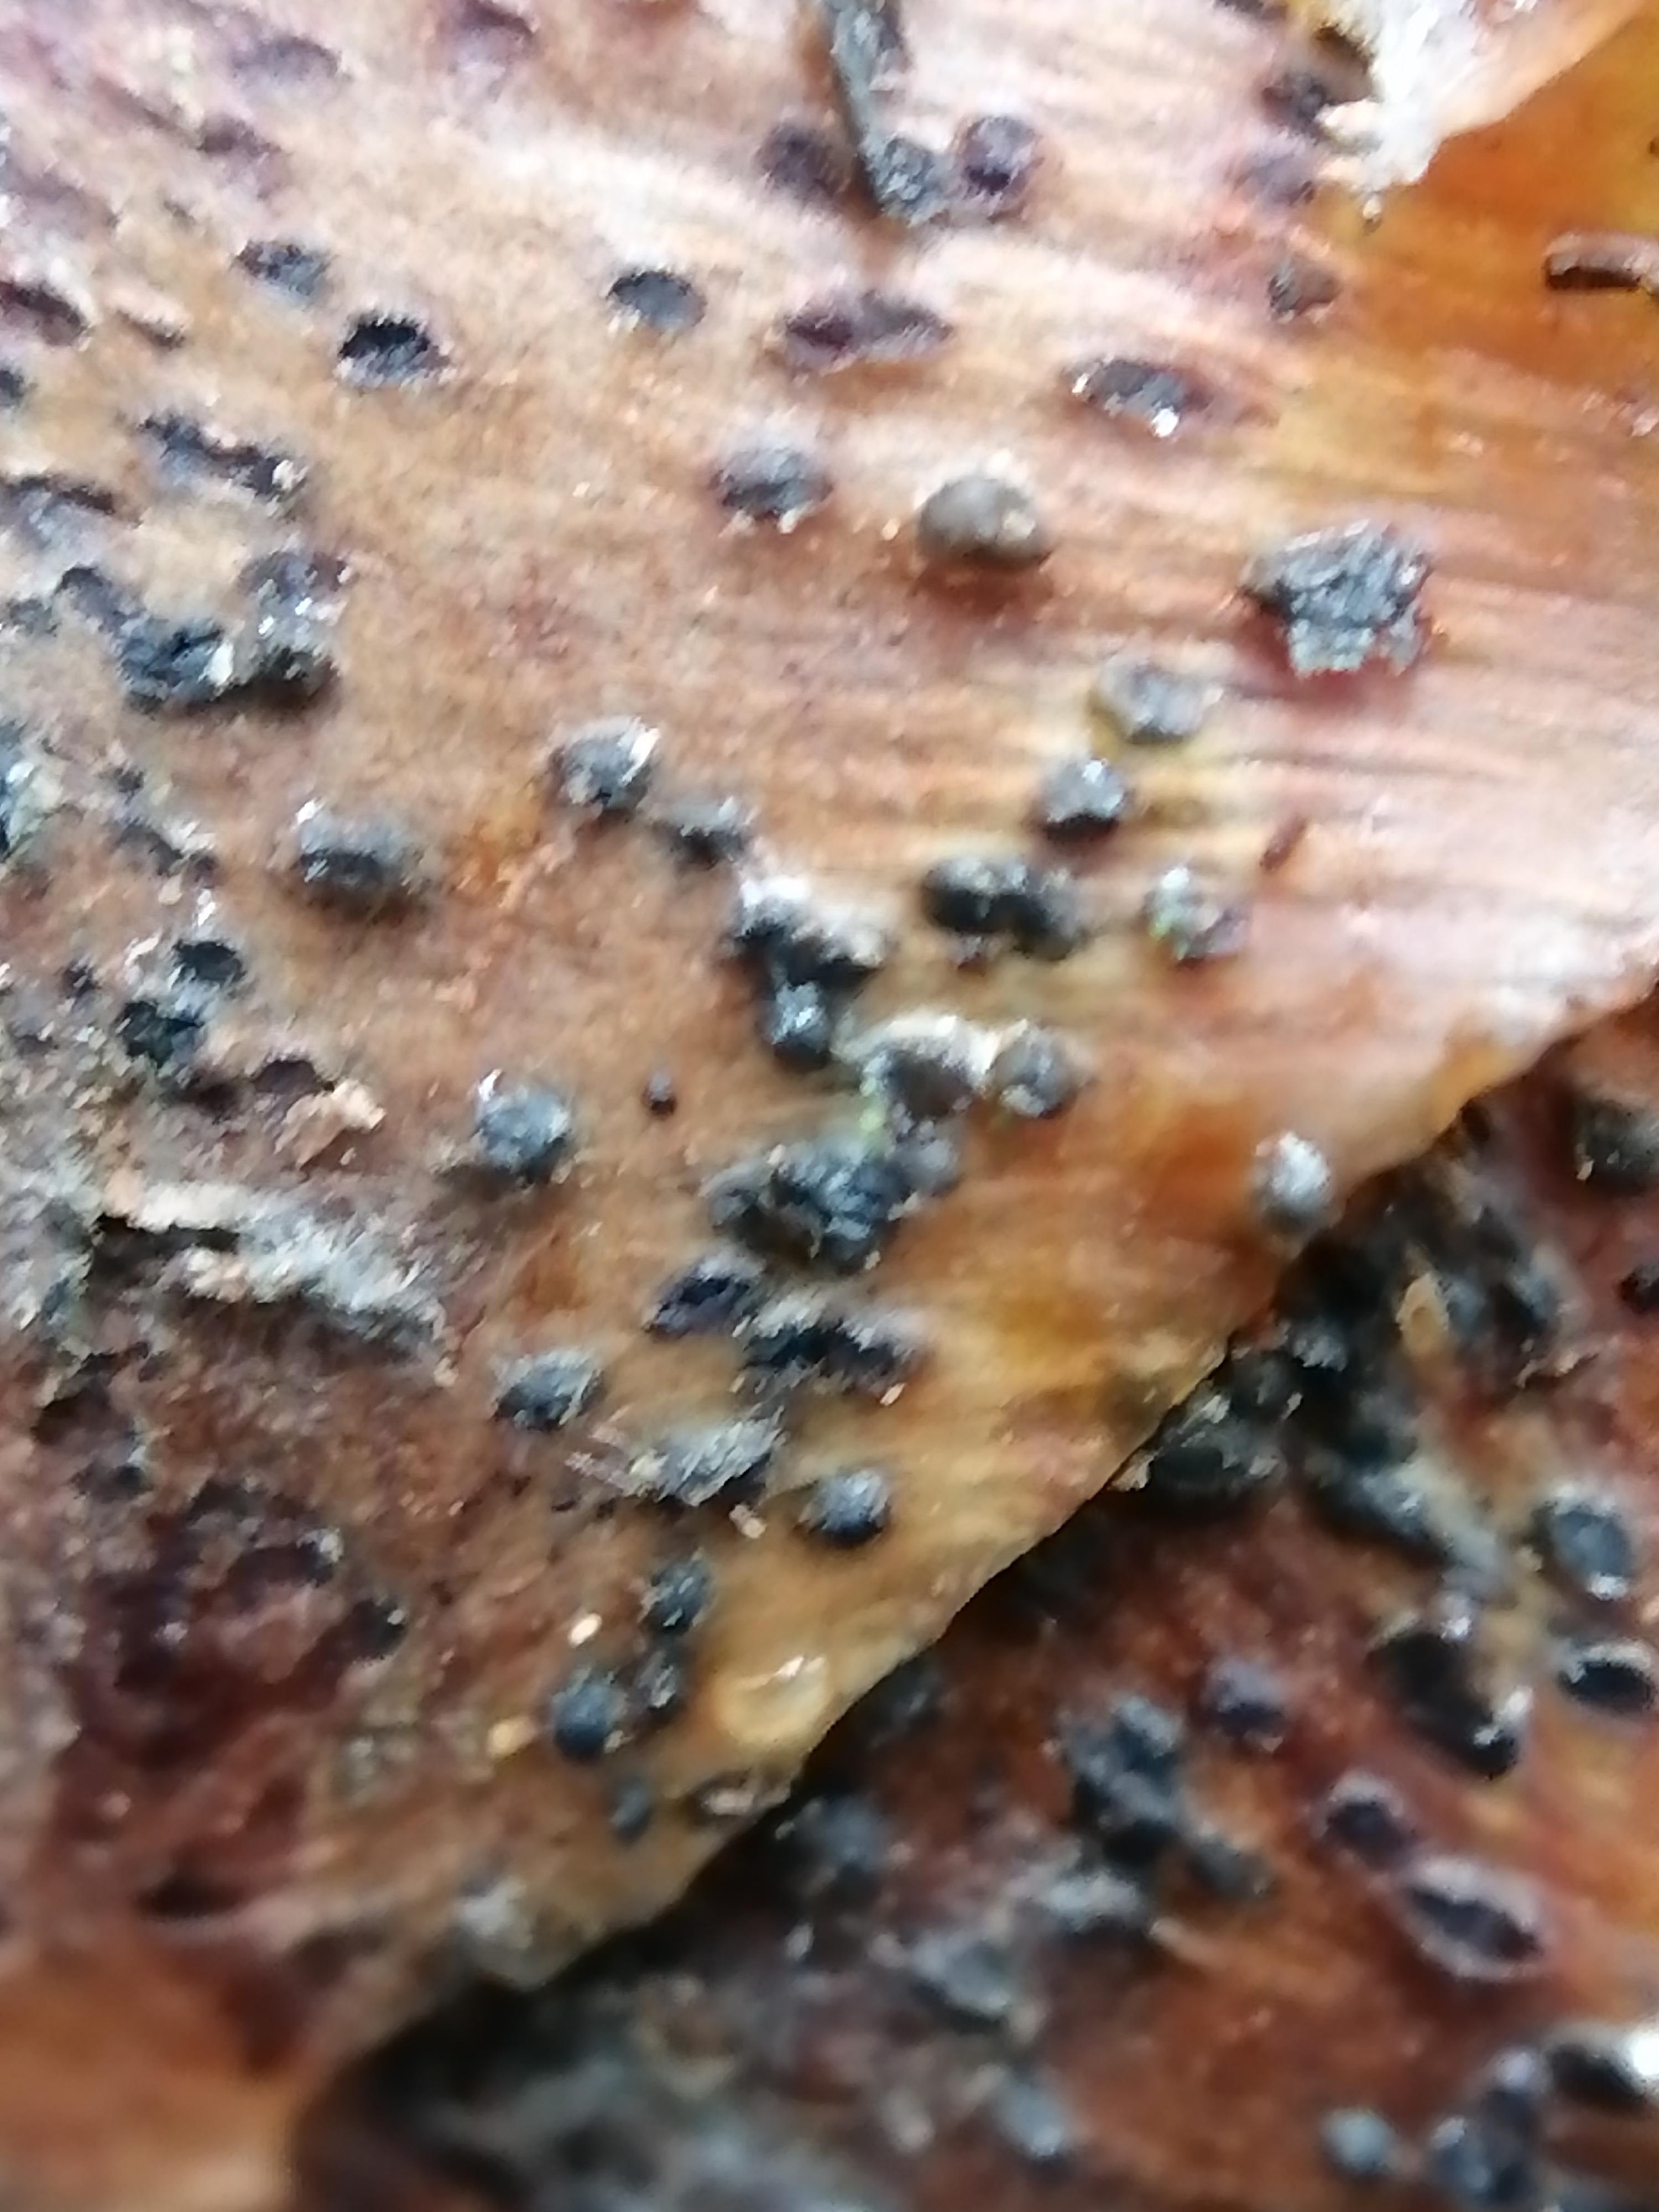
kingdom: Fungi
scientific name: Fungi
